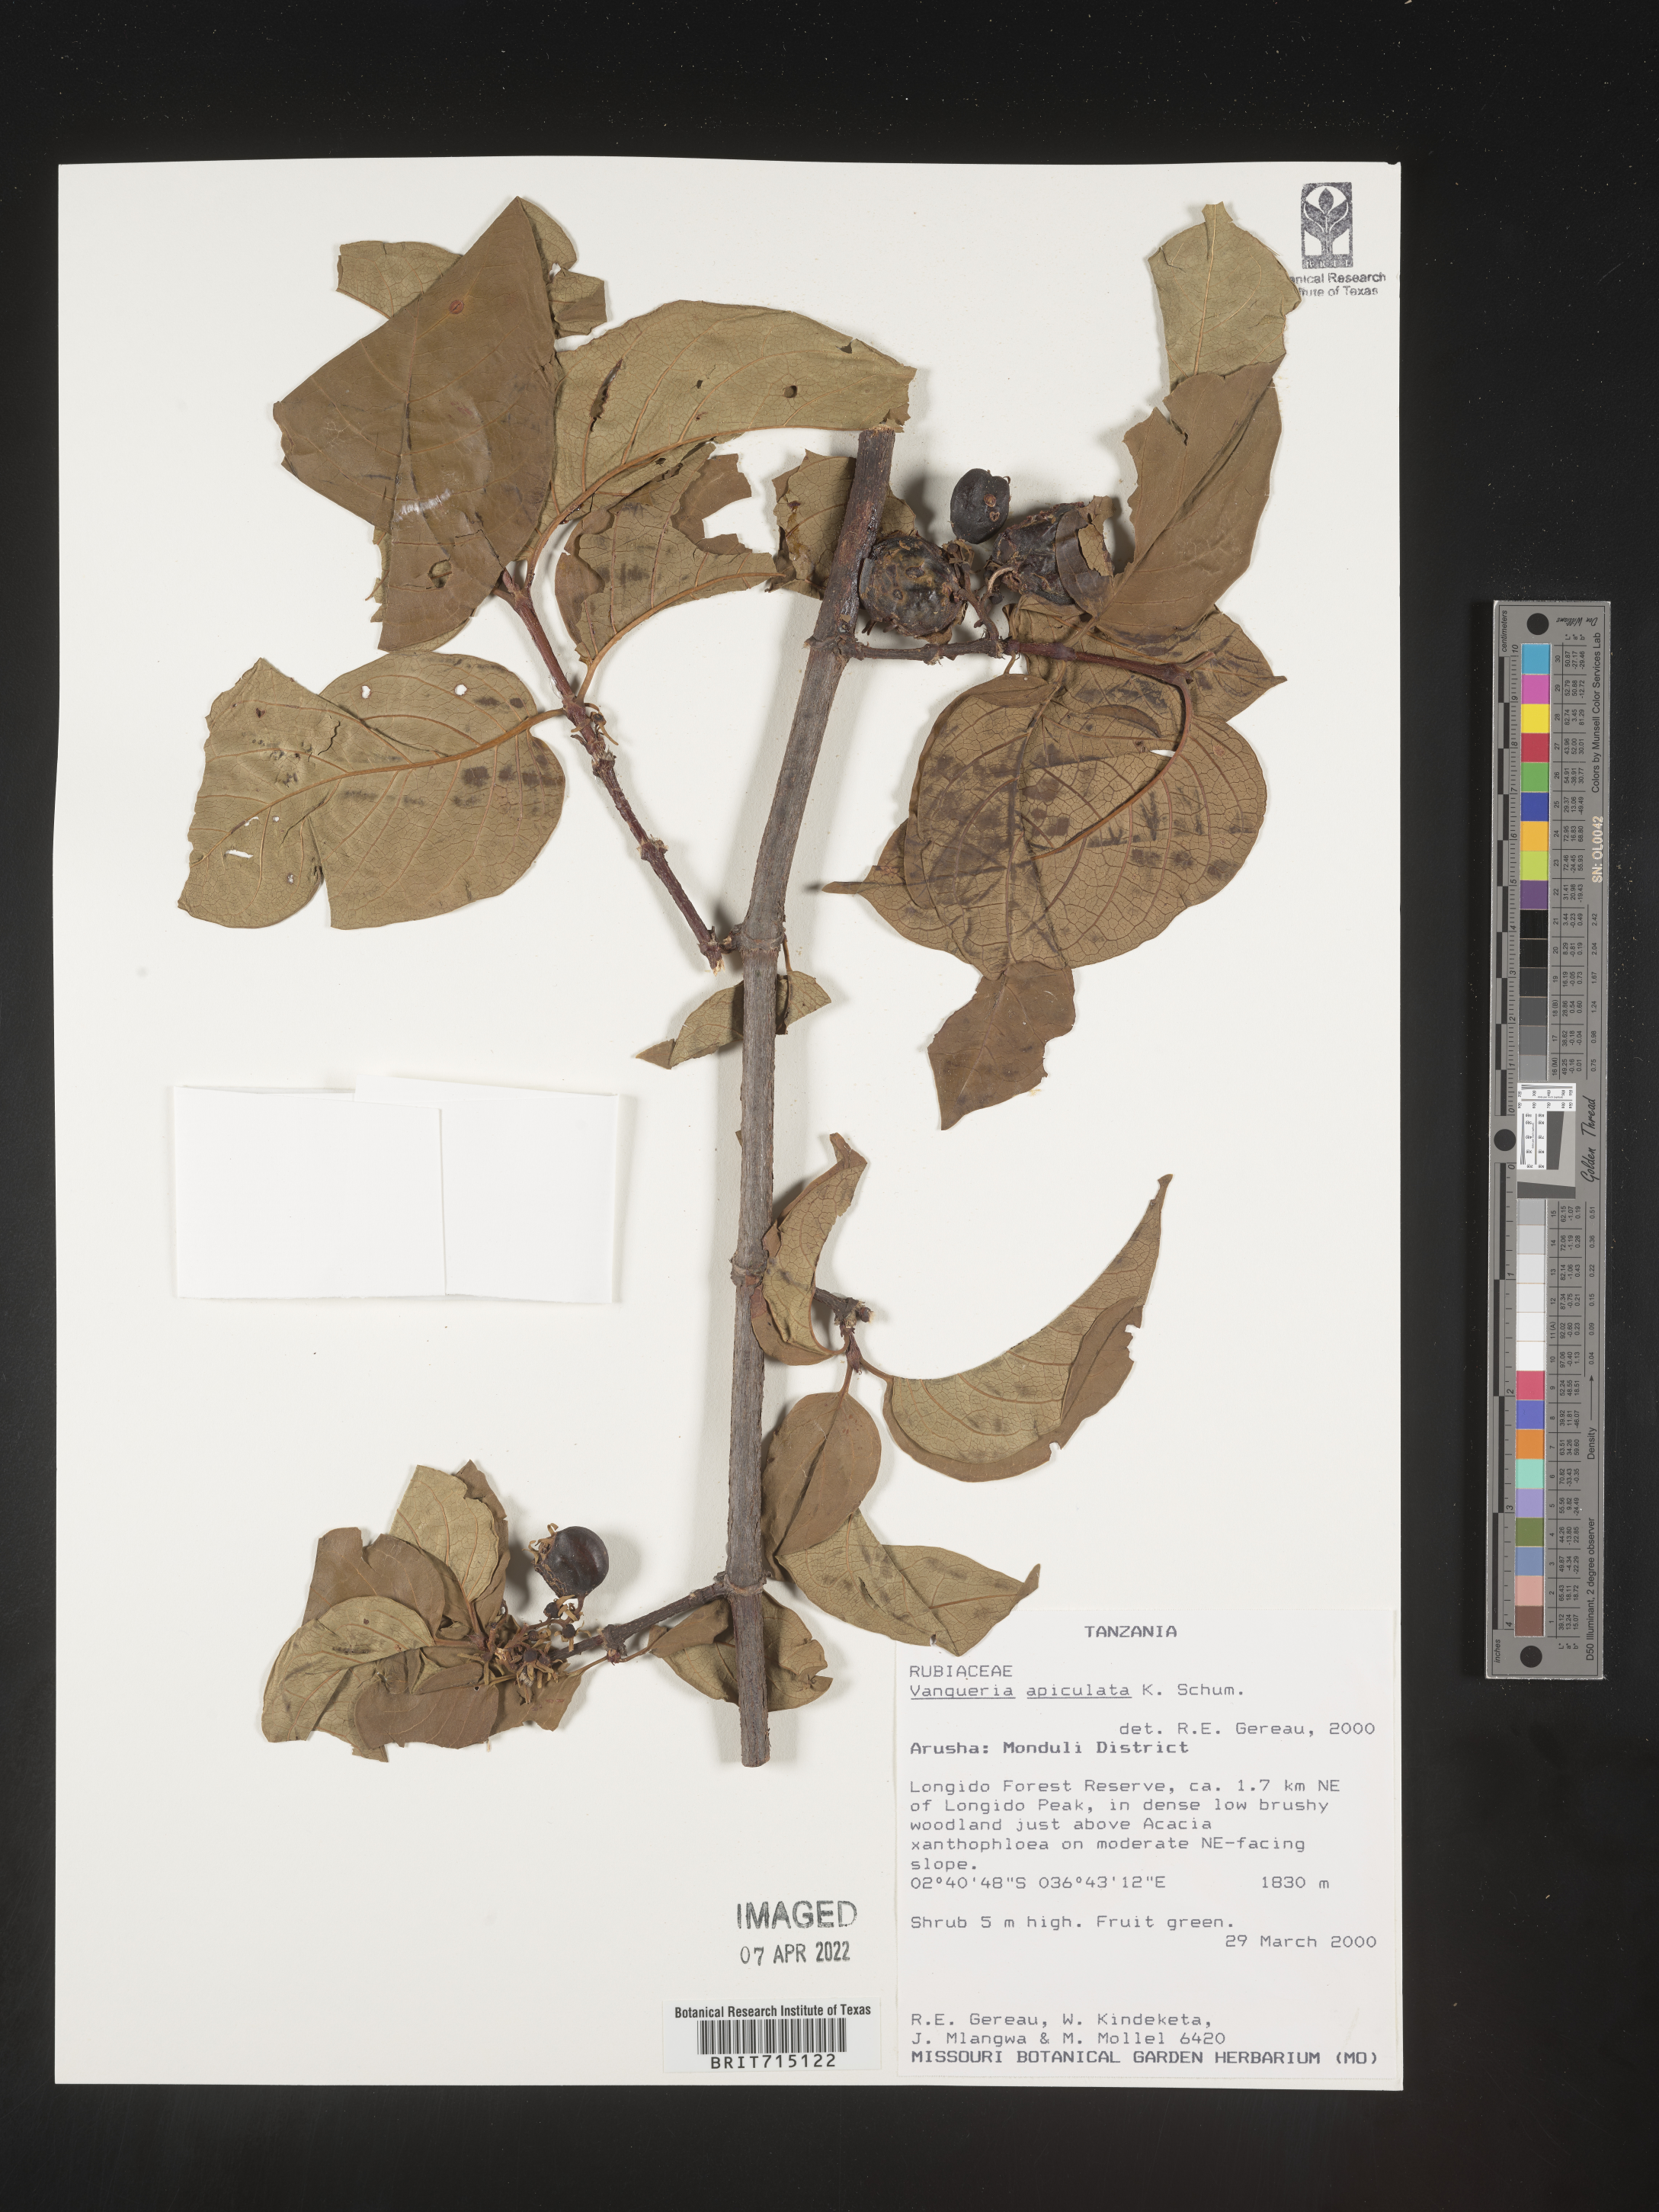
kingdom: Plantae
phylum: Tracheophyta
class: Magnoliopsida
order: Gentianales
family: Rubiaceae
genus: Vangueria
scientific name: Vangueria
